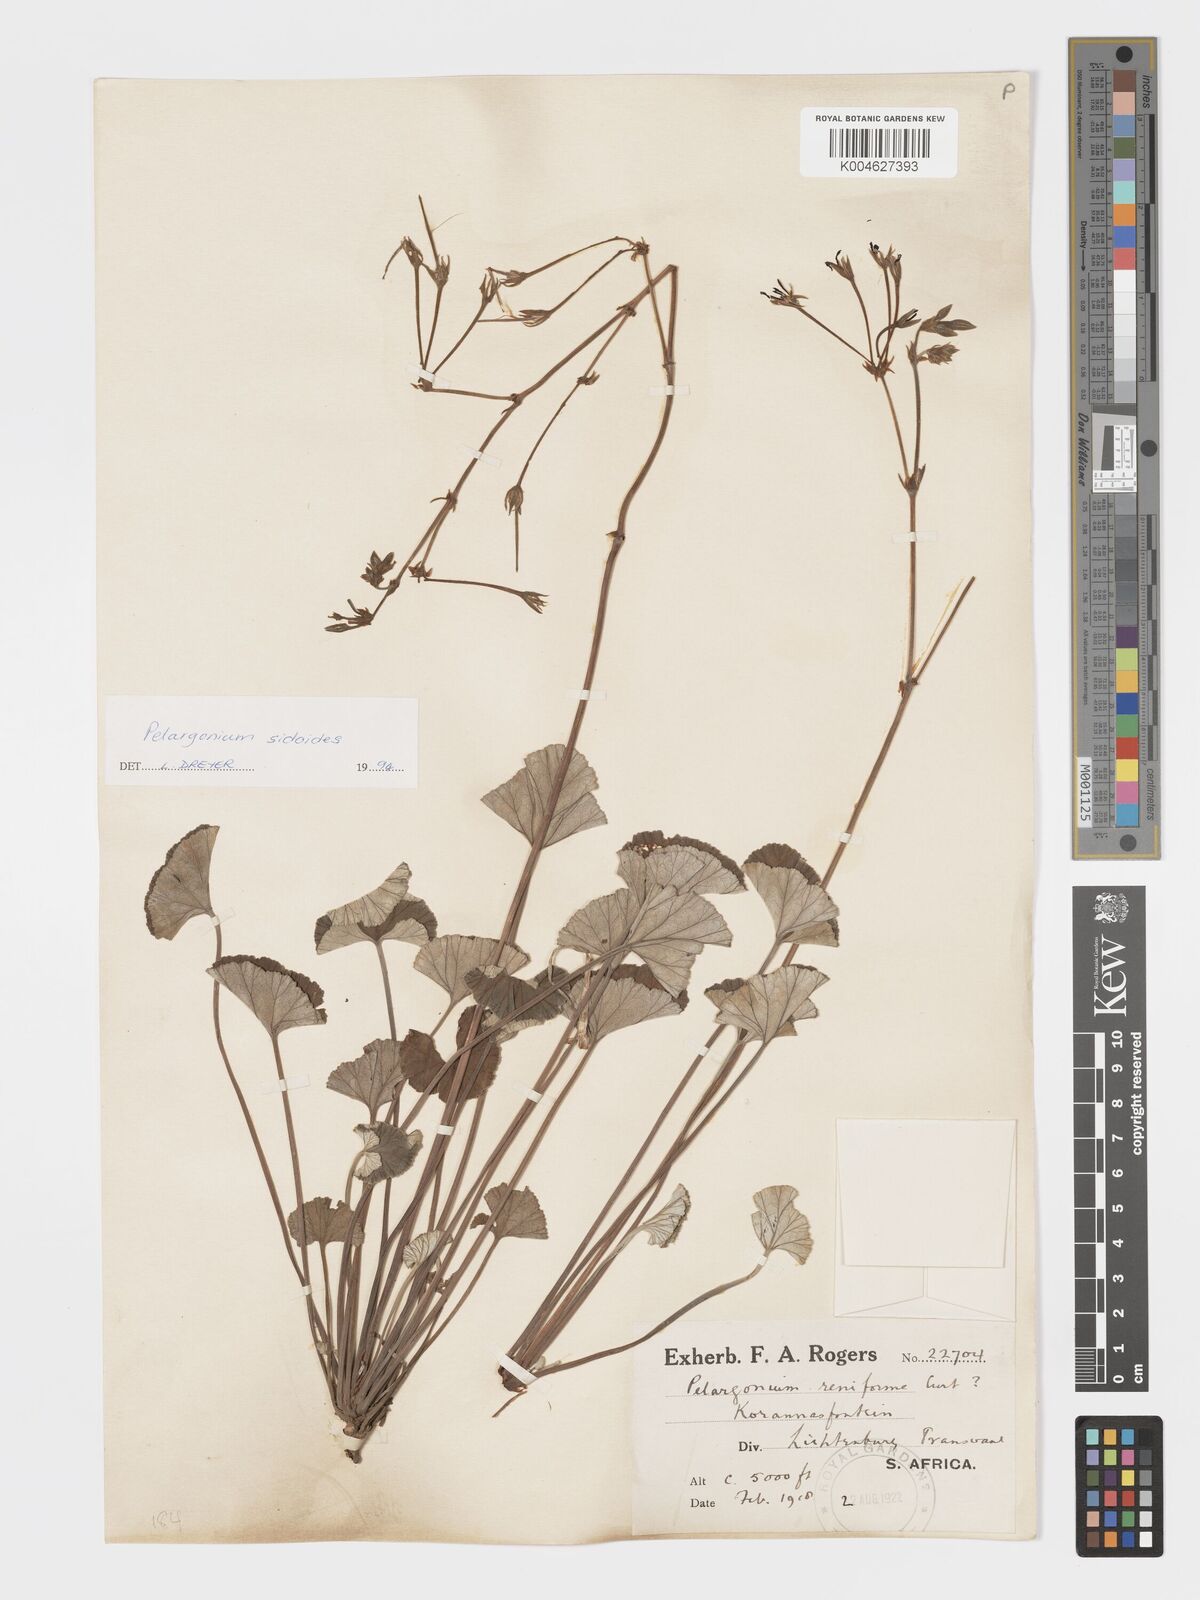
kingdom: Plantae
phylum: Tracheophyta
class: Magnoliopsida
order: Geraniales
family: Geraniaceae
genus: Pelargonium
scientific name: Pelargonium sidoides
